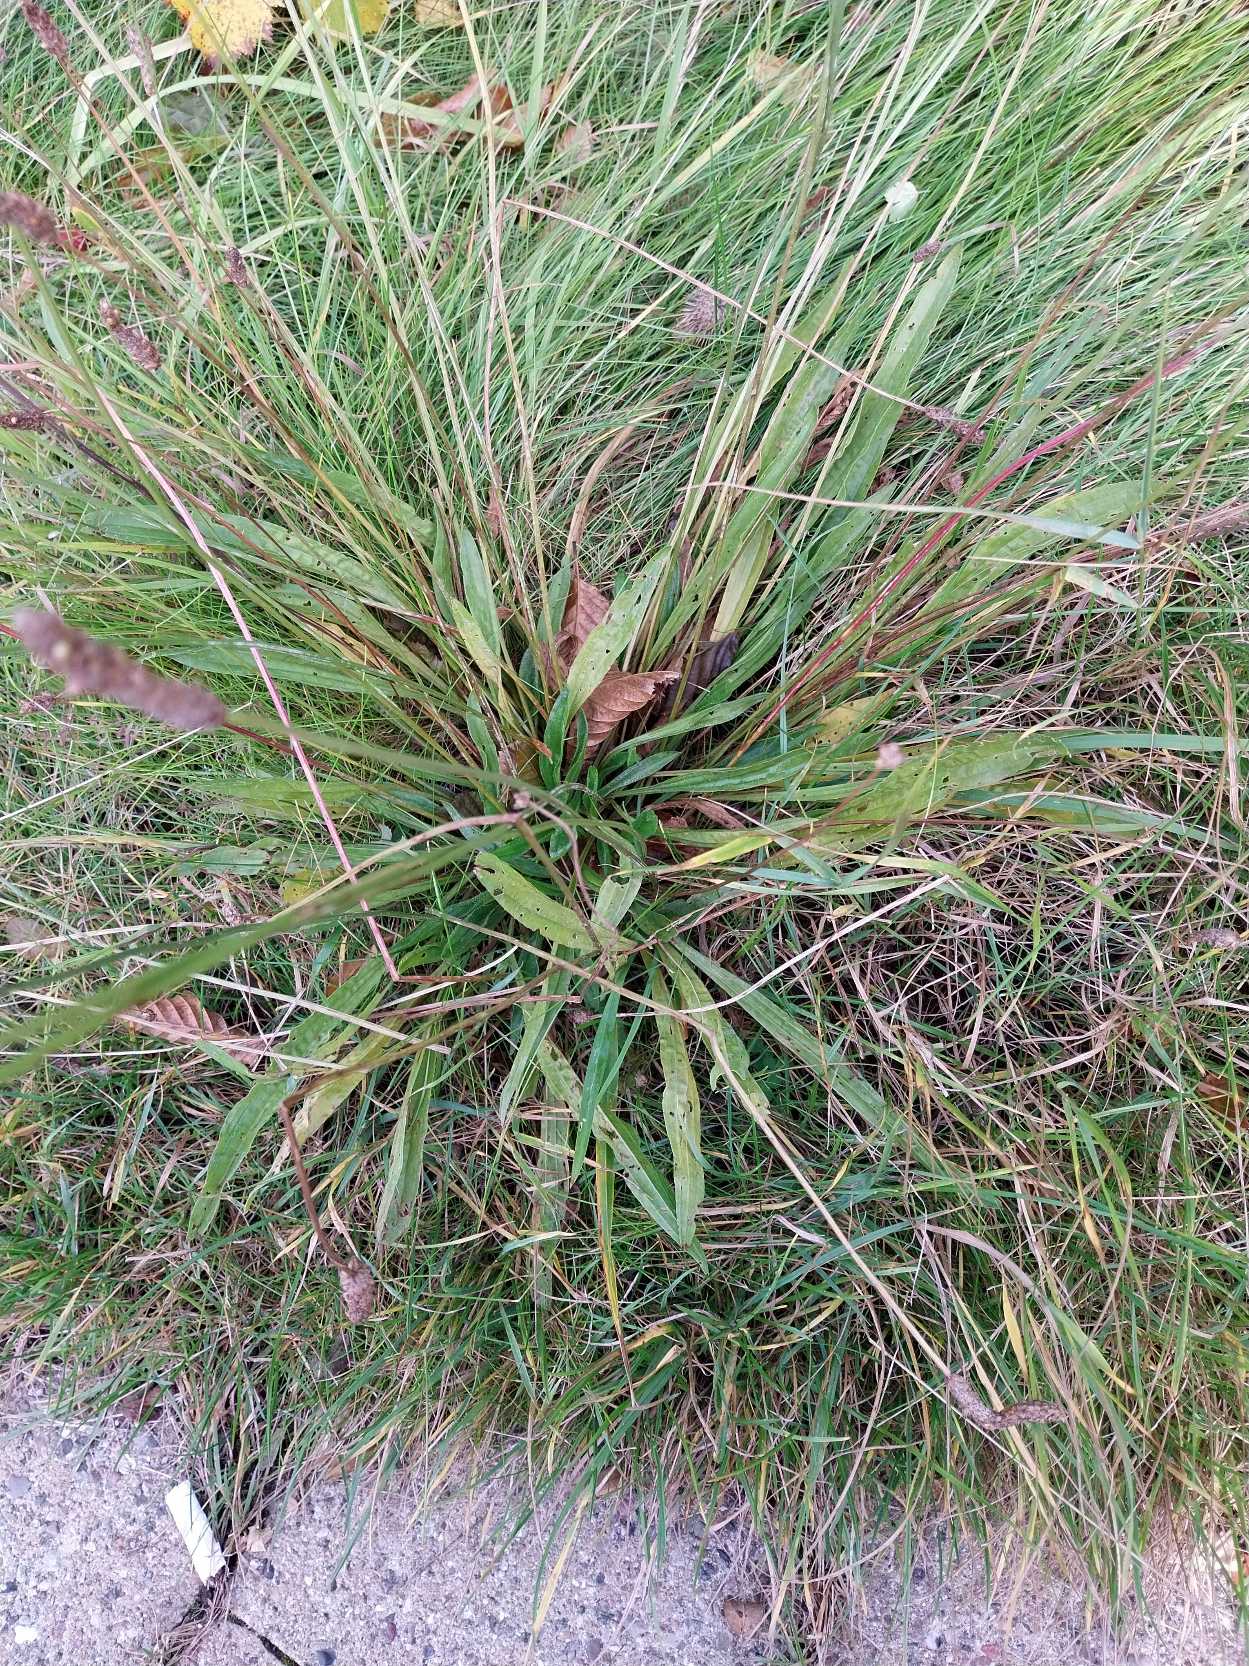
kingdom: Plantae
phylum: Tracheophyta
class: Magnoliopsida
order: Lamiales
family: Plantaginaceae
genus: Plantago
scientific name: Plantago lanceolata
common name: Lancet-vejbred
